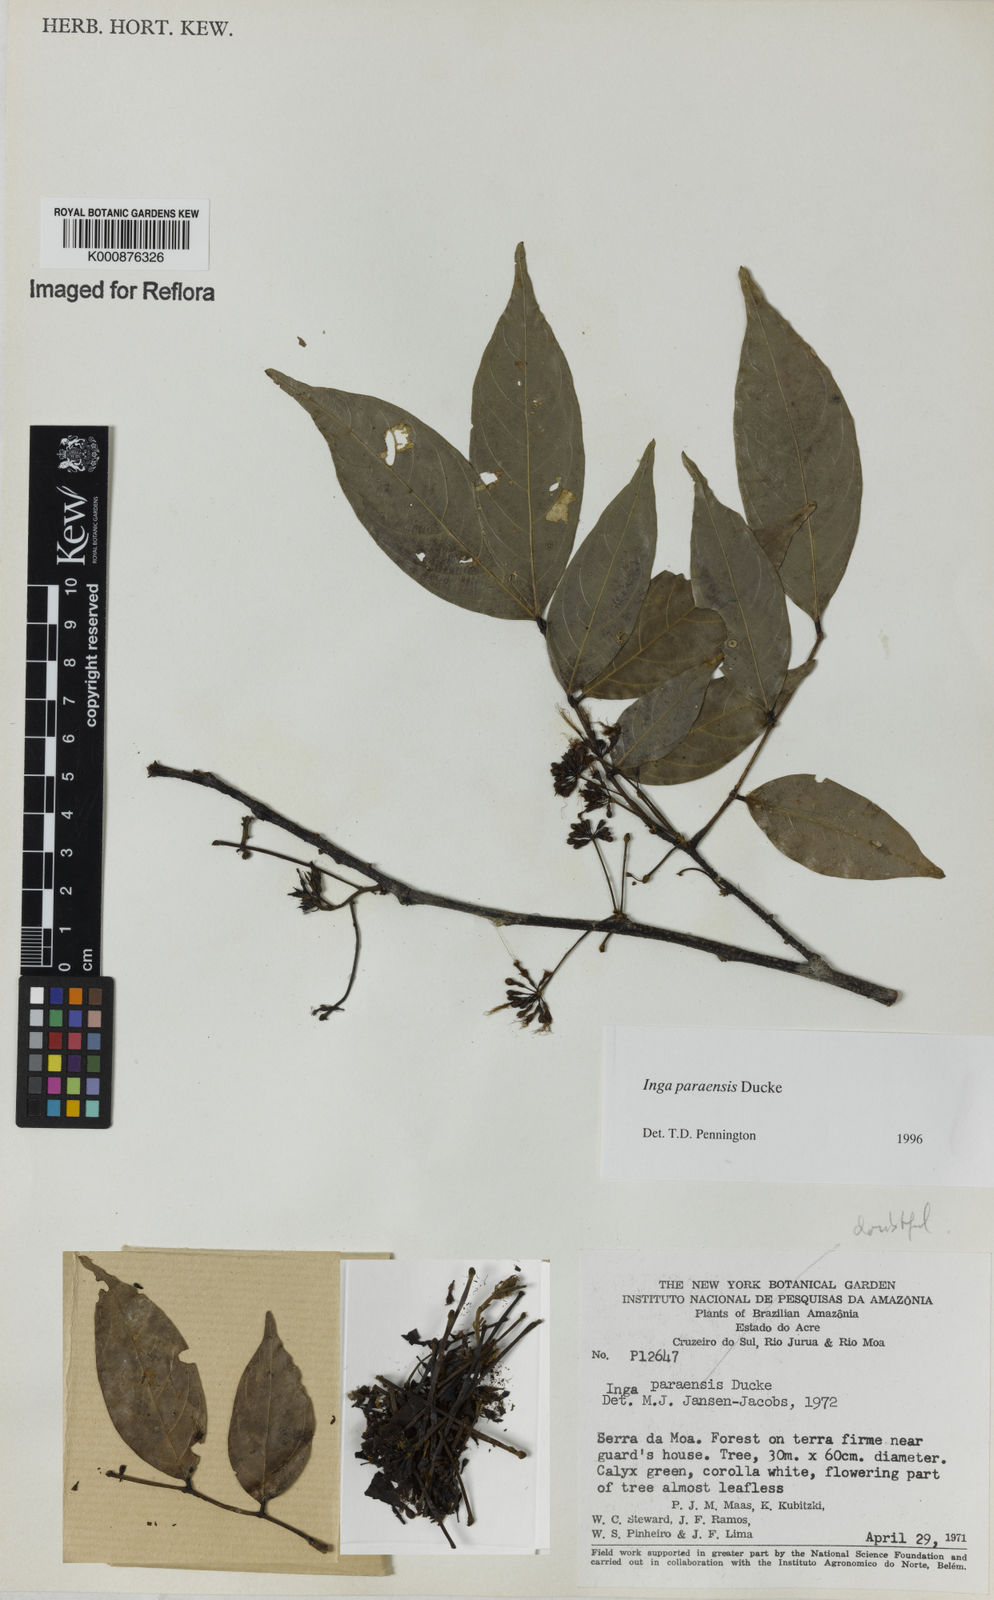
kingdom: Plantae
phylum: Tracheophyta
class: Magnoliopsida
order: Fabales
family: Fabaceae
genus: Inga
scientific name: Inga paraensis
